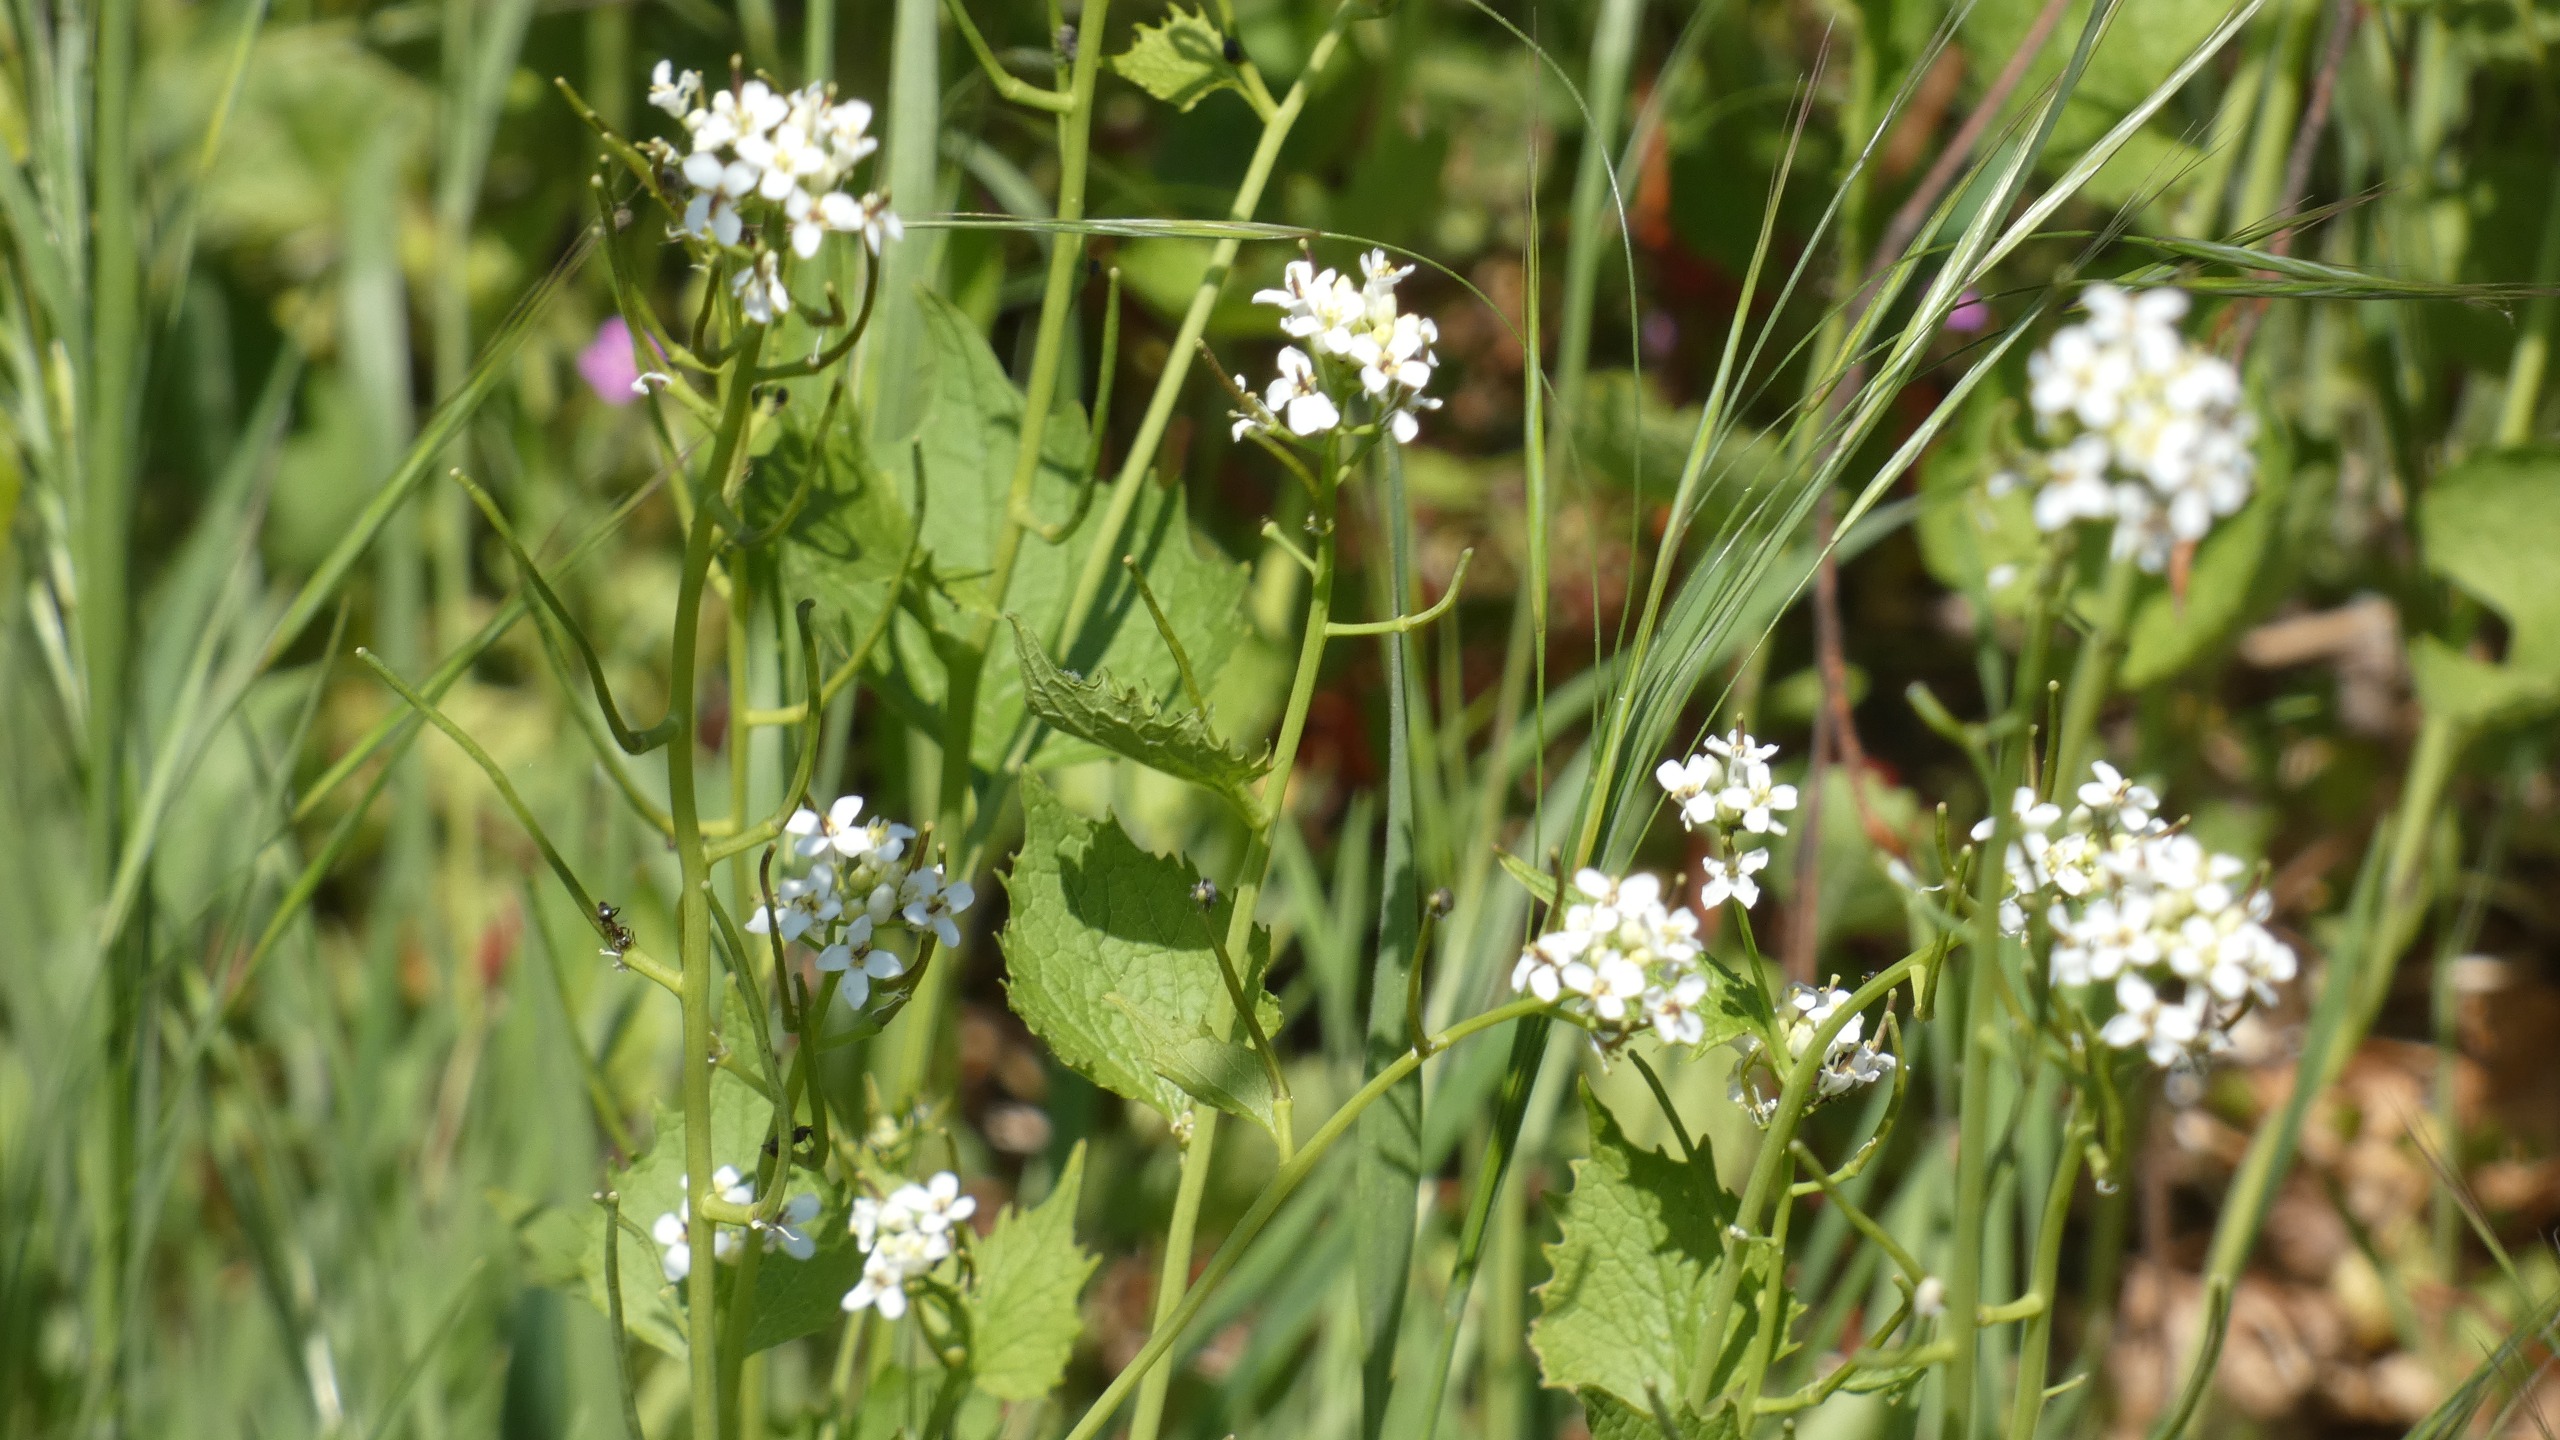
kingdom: Plantae
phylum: Tracheophyta
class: Magnoliopsida
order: Brassicales
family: Brassicaceae
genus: Alliaria
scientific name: Alliaria petiolata
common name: Løgkarse
